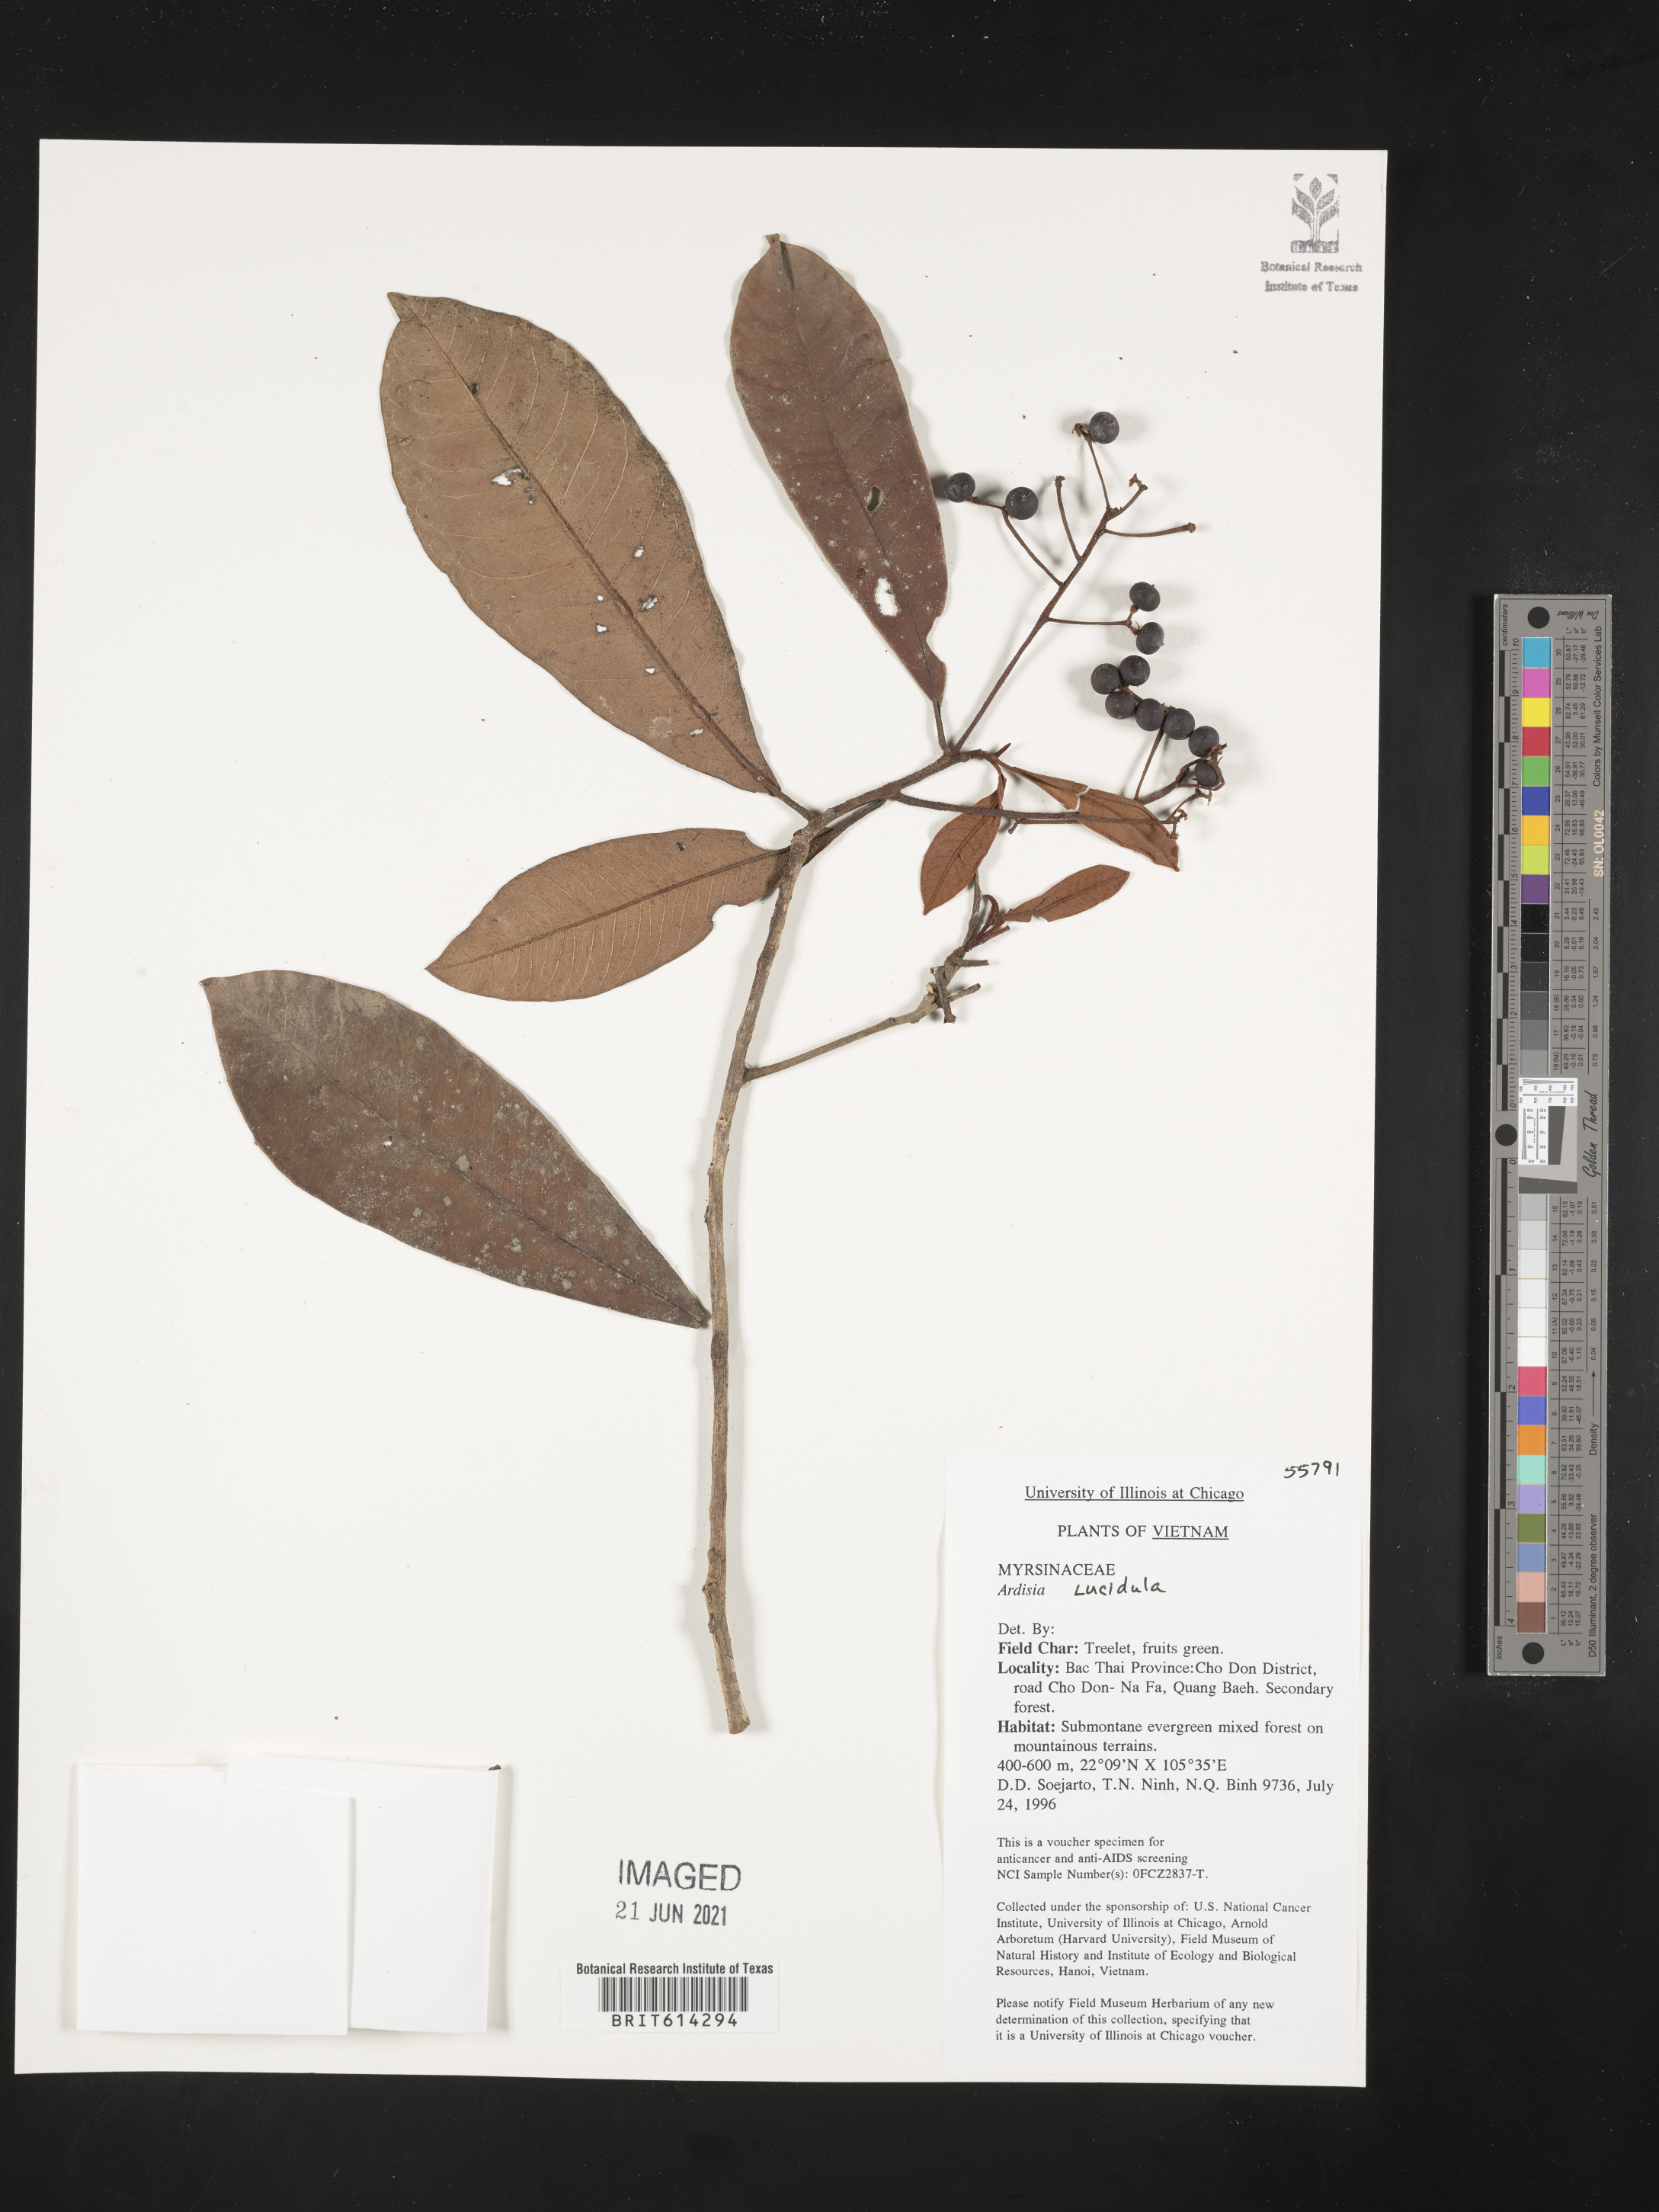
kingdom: Plantae
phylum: Tracheophyta
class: Magnoliopsida
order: Ericales
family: Primulaceae
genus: Ardisia
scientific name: Ardisia lucidula
